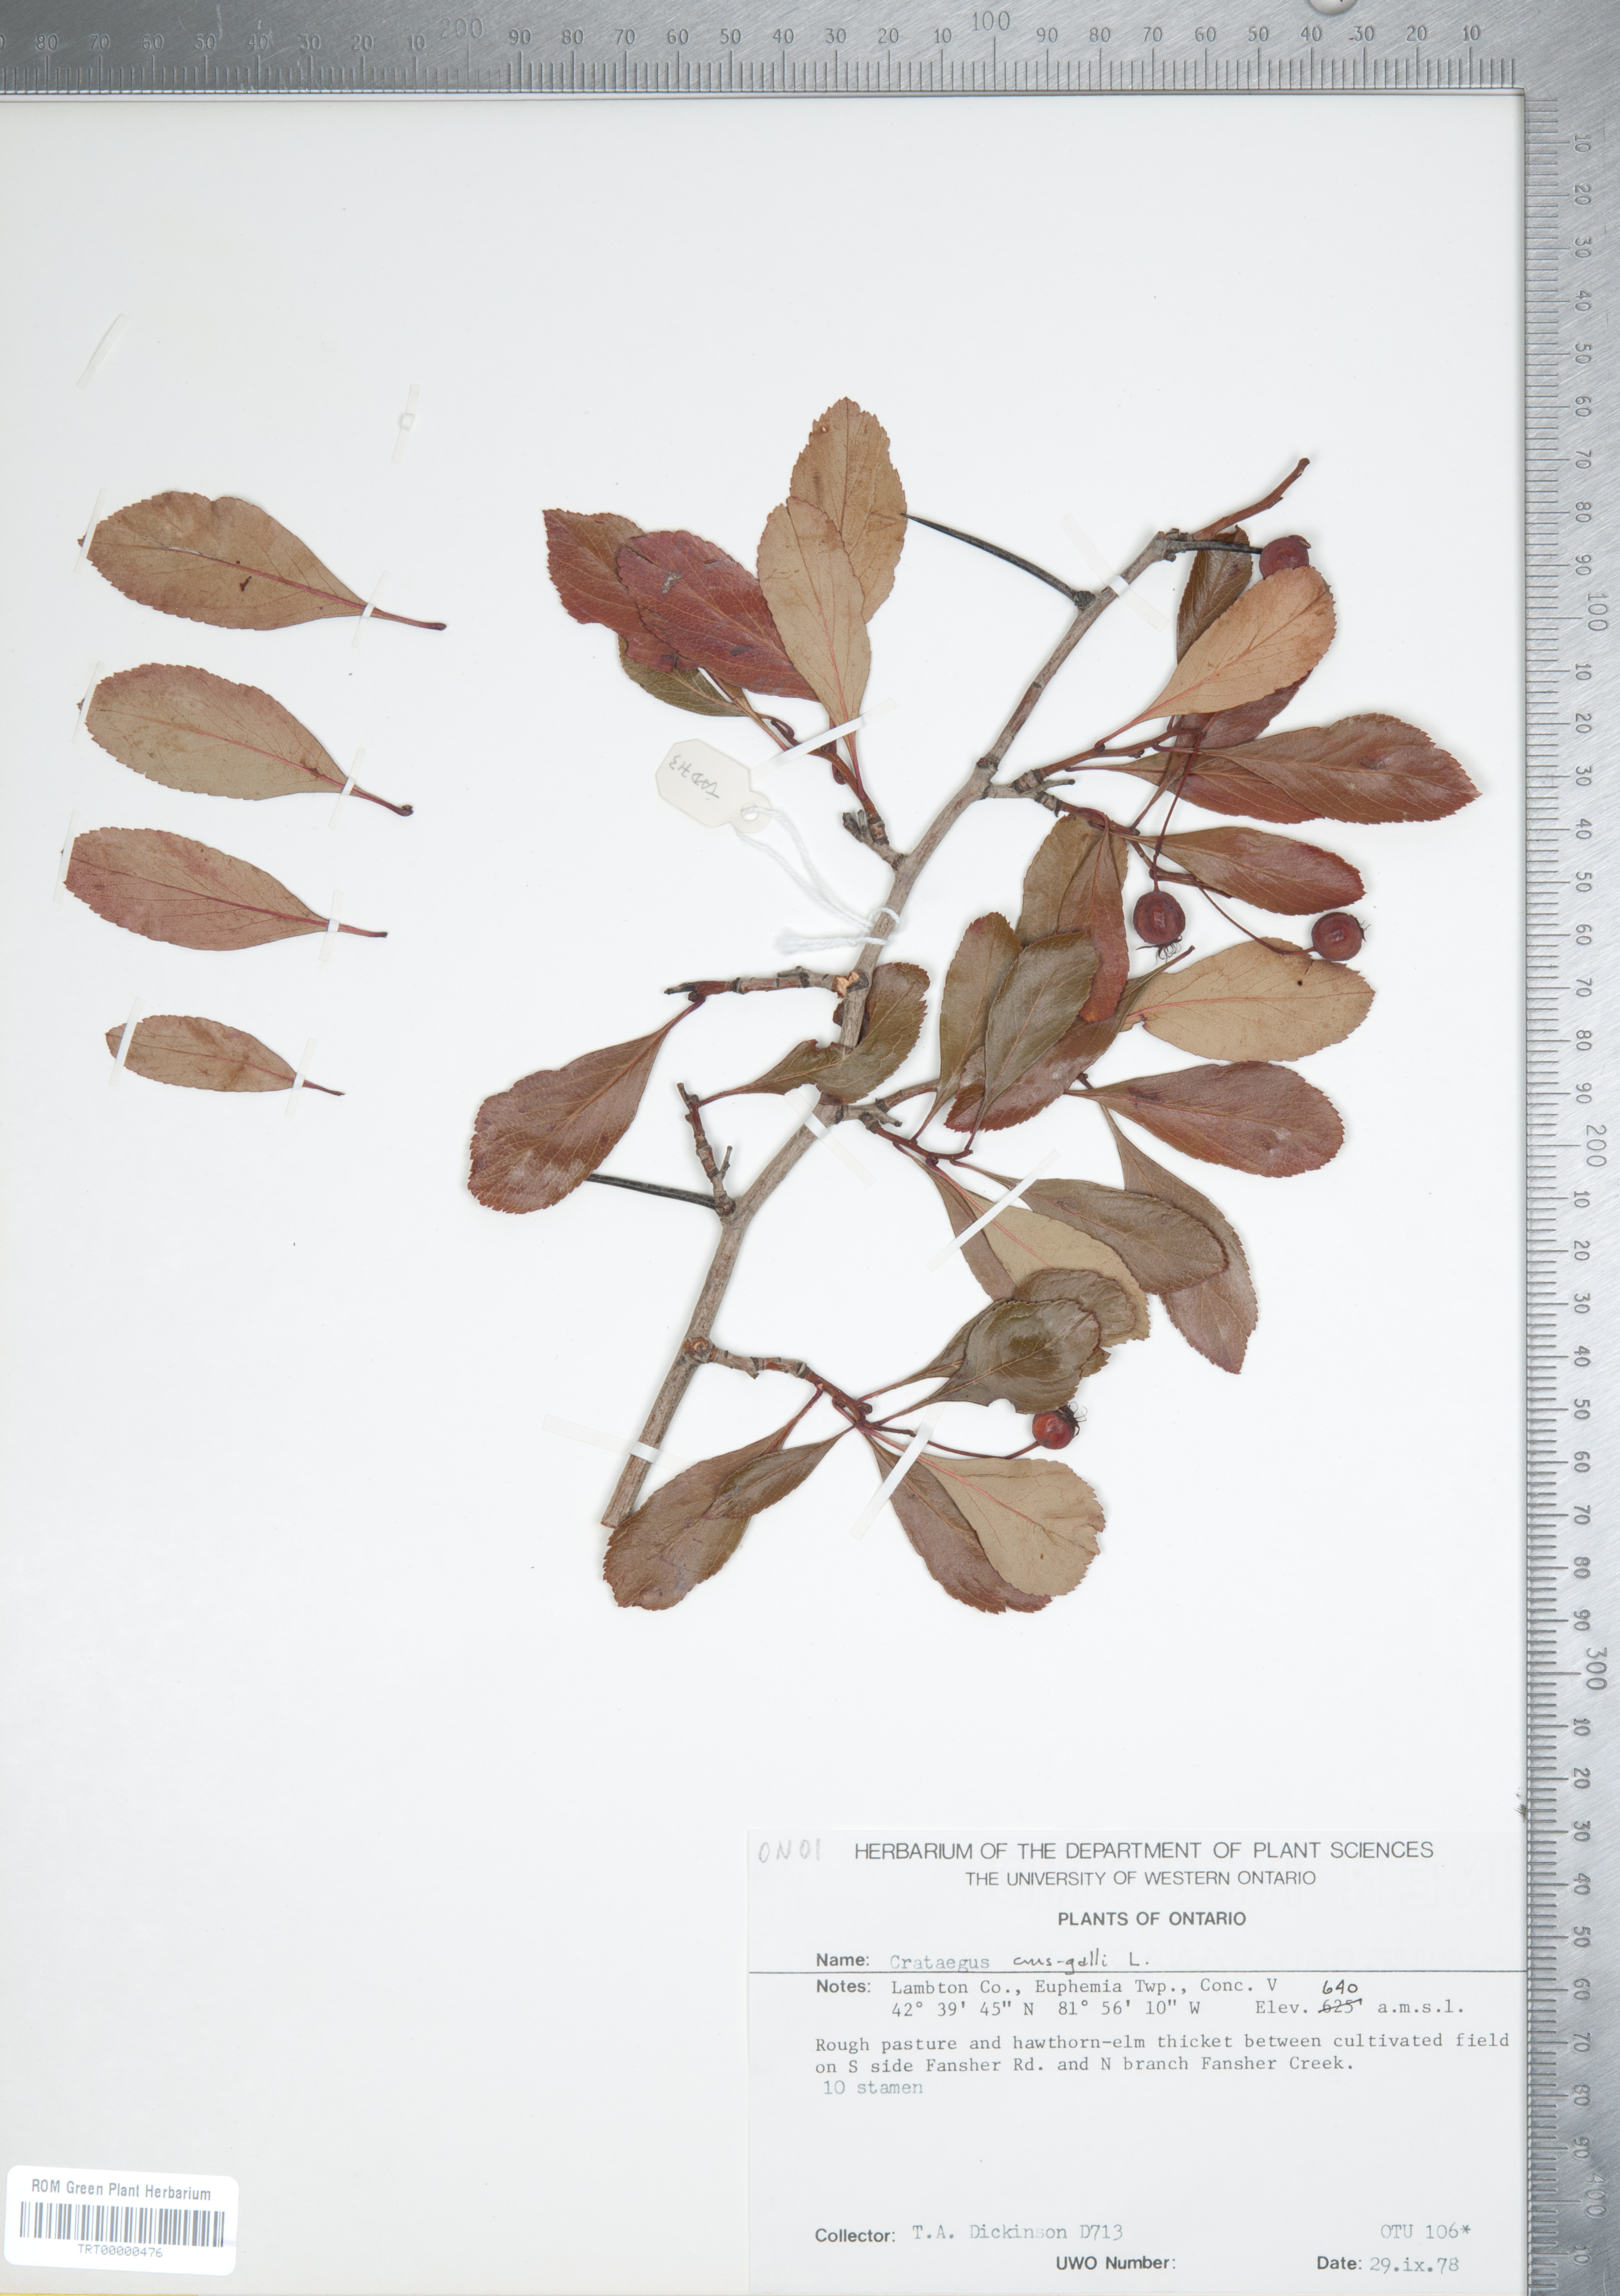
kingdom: Plantae
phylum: Tracheophyta
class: Magnoliopsida
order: Rosales
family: Rosaceae
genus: Crataegus
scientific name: Crataegus crus-galli
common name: Cockspurthorn
